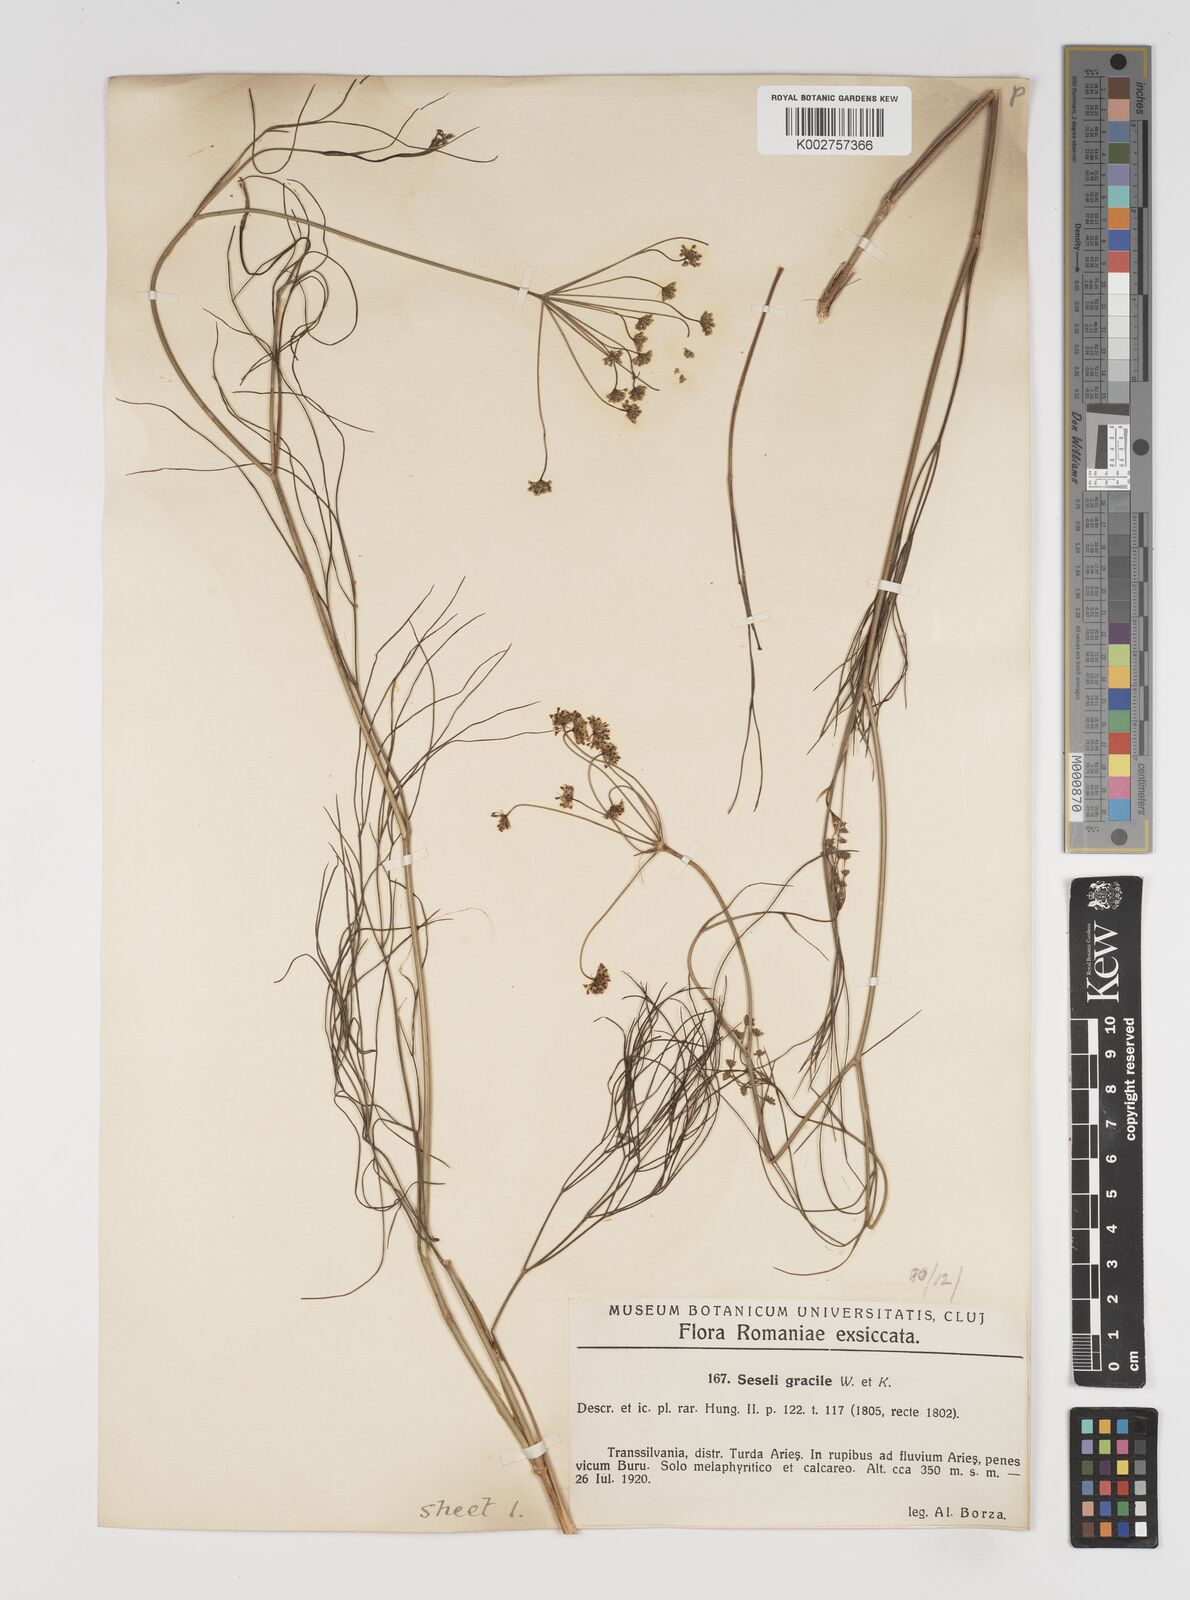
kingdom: Plantae
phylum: Tracheophyta
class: Magnoliopsida
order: Apiales
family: Apiaceae
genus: Seseli
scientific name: Seseli gracile
